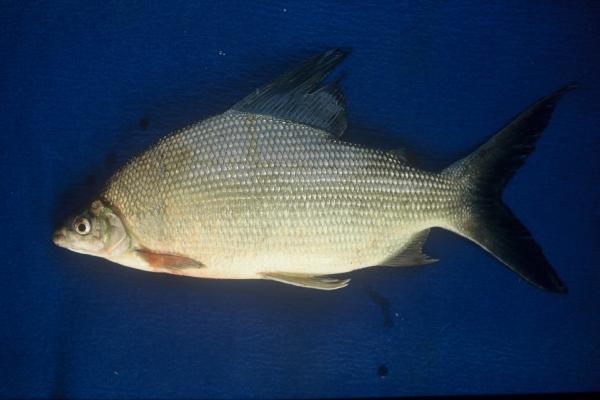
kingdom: Animalia
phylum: Chordata
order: Characiformes
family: Distichodontidae
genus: Distichodus
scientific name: Distichodus schenga
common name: Chessa
